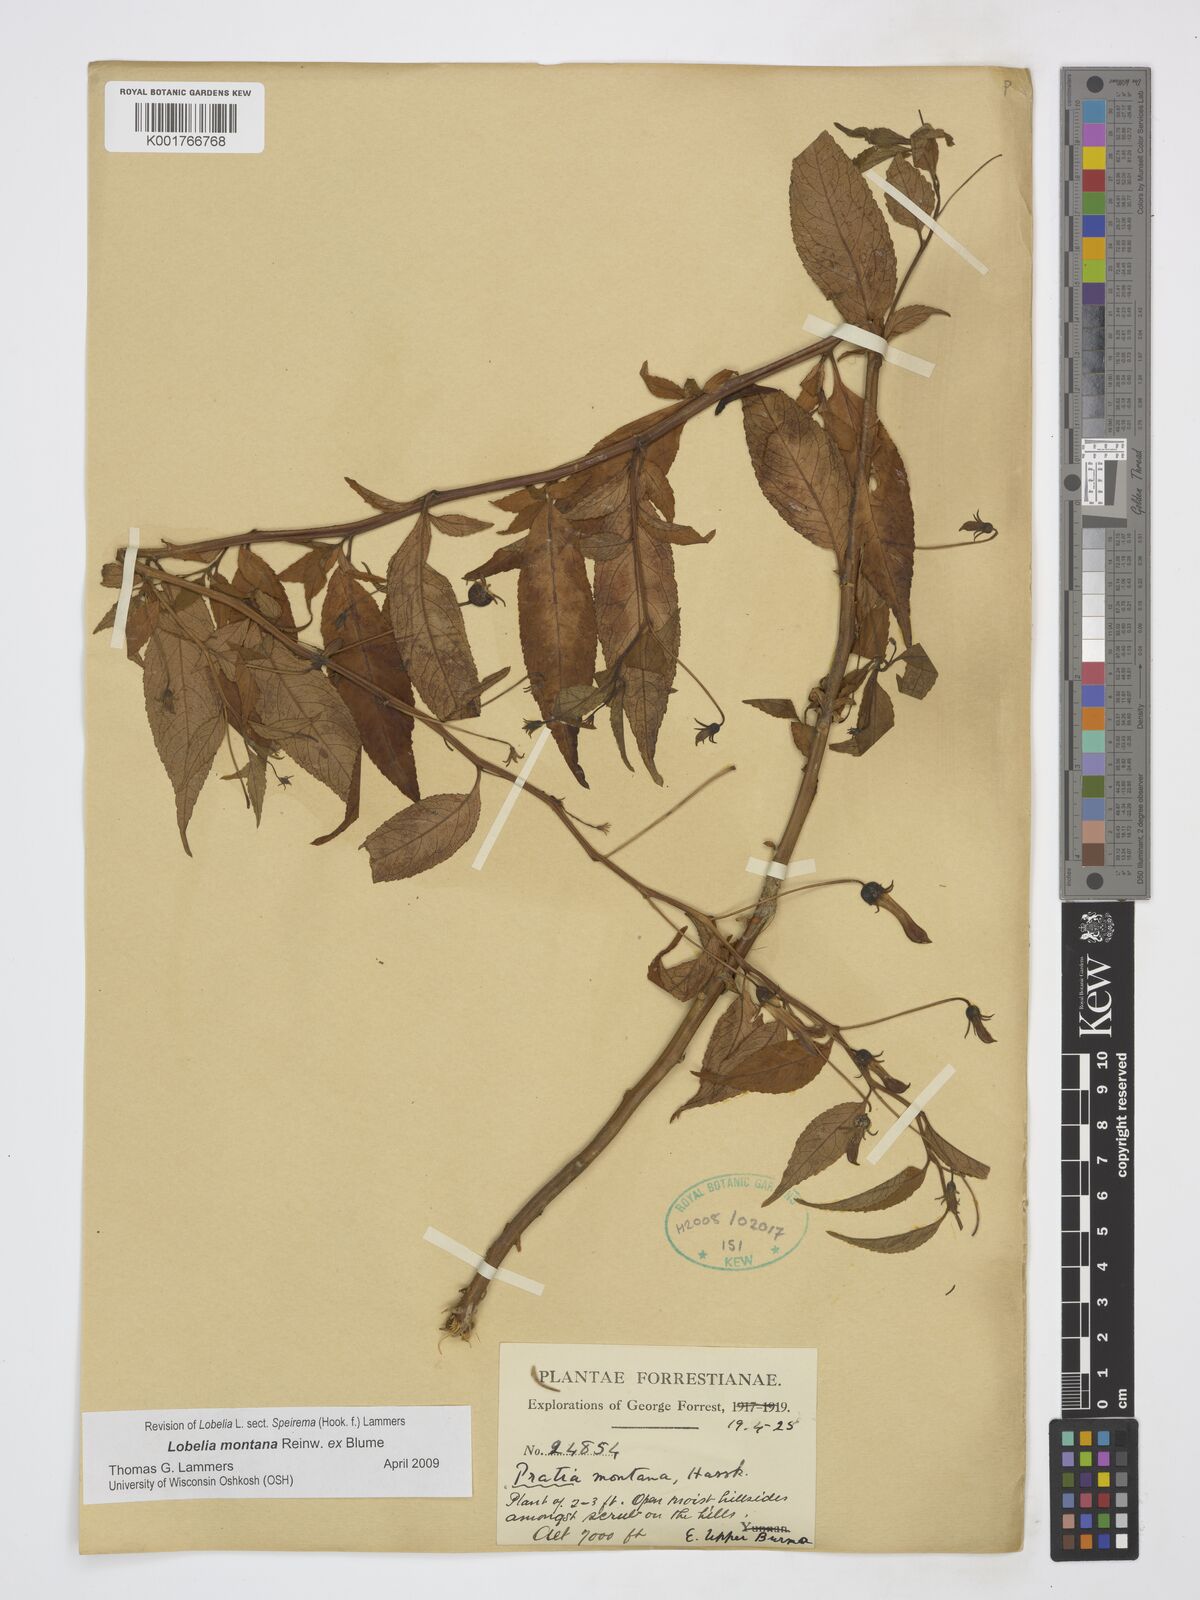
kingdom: Plantae
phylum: Tracheophyta
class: Magnoliopsida
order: Asterales
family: Campanulaceae
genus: Lobelia
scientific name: Lobelia montana
